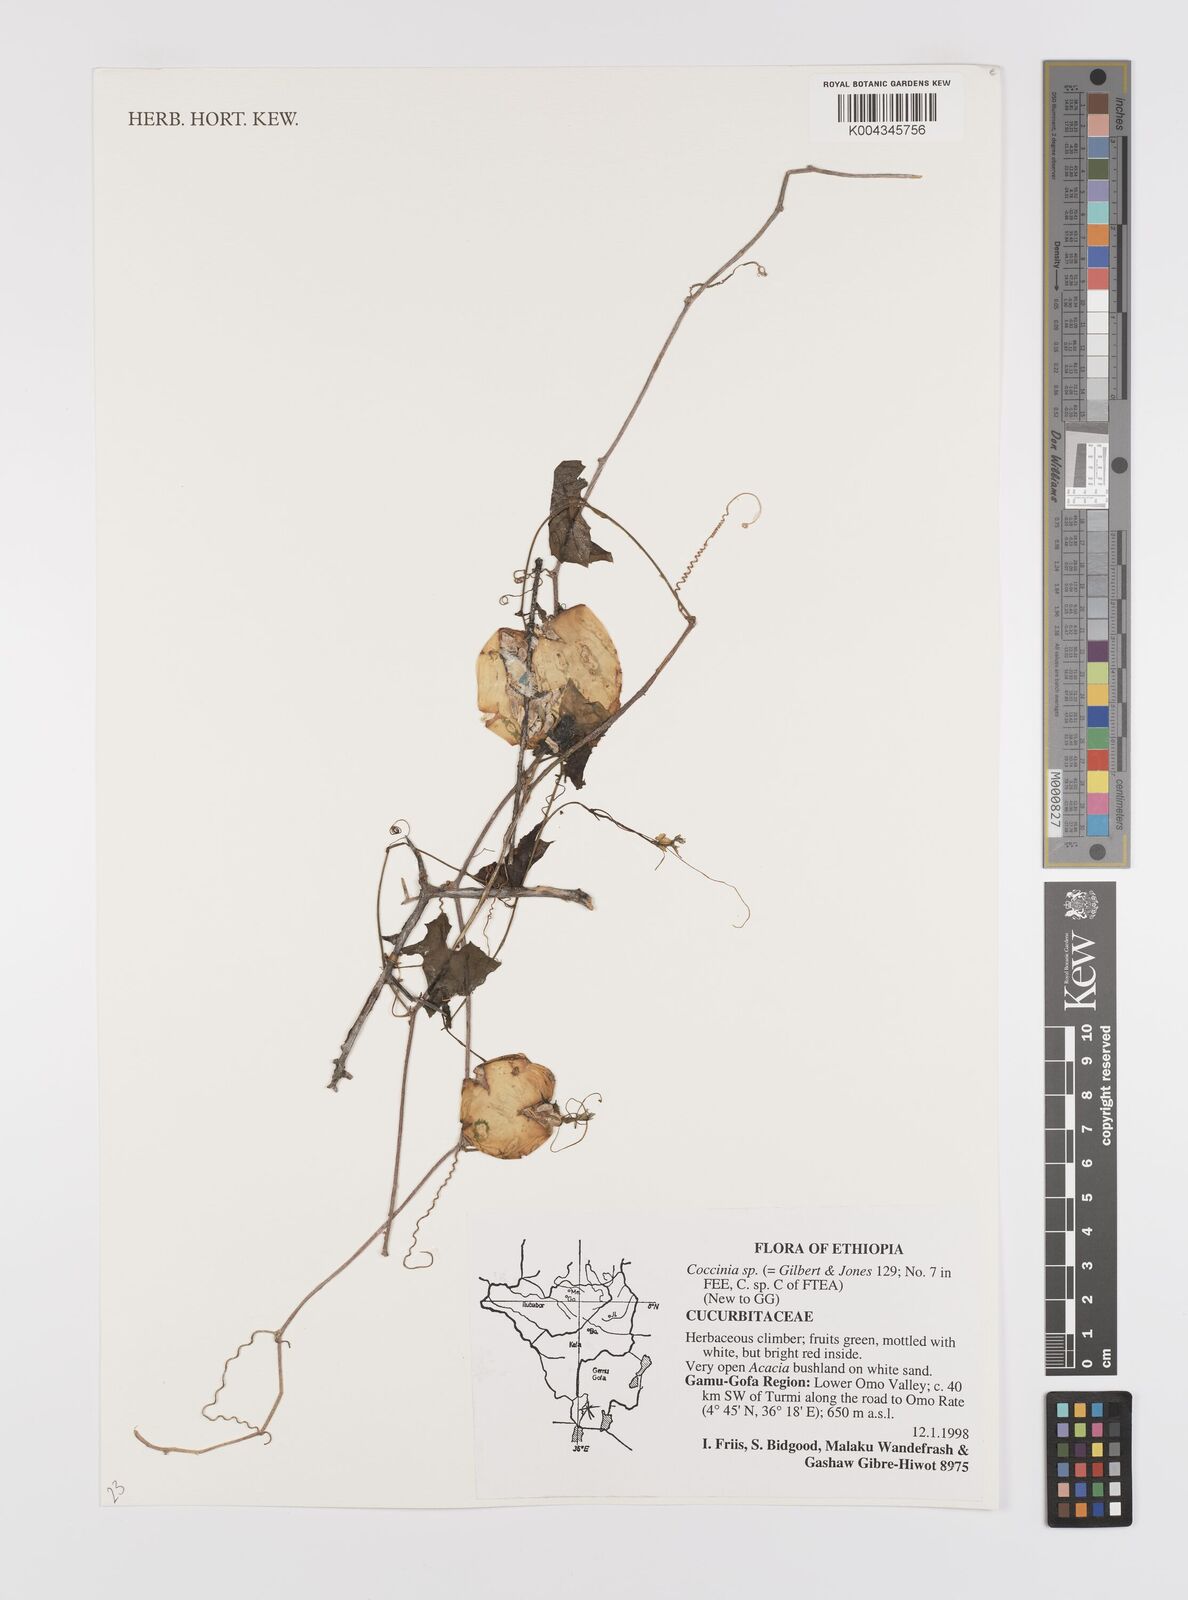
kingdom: Plantae
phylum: Tracheophyta
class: Magnoliopsida
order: Cucurbitales
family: Cucurbitaceae
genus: Coccinia
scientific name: Coccinia microphylla
